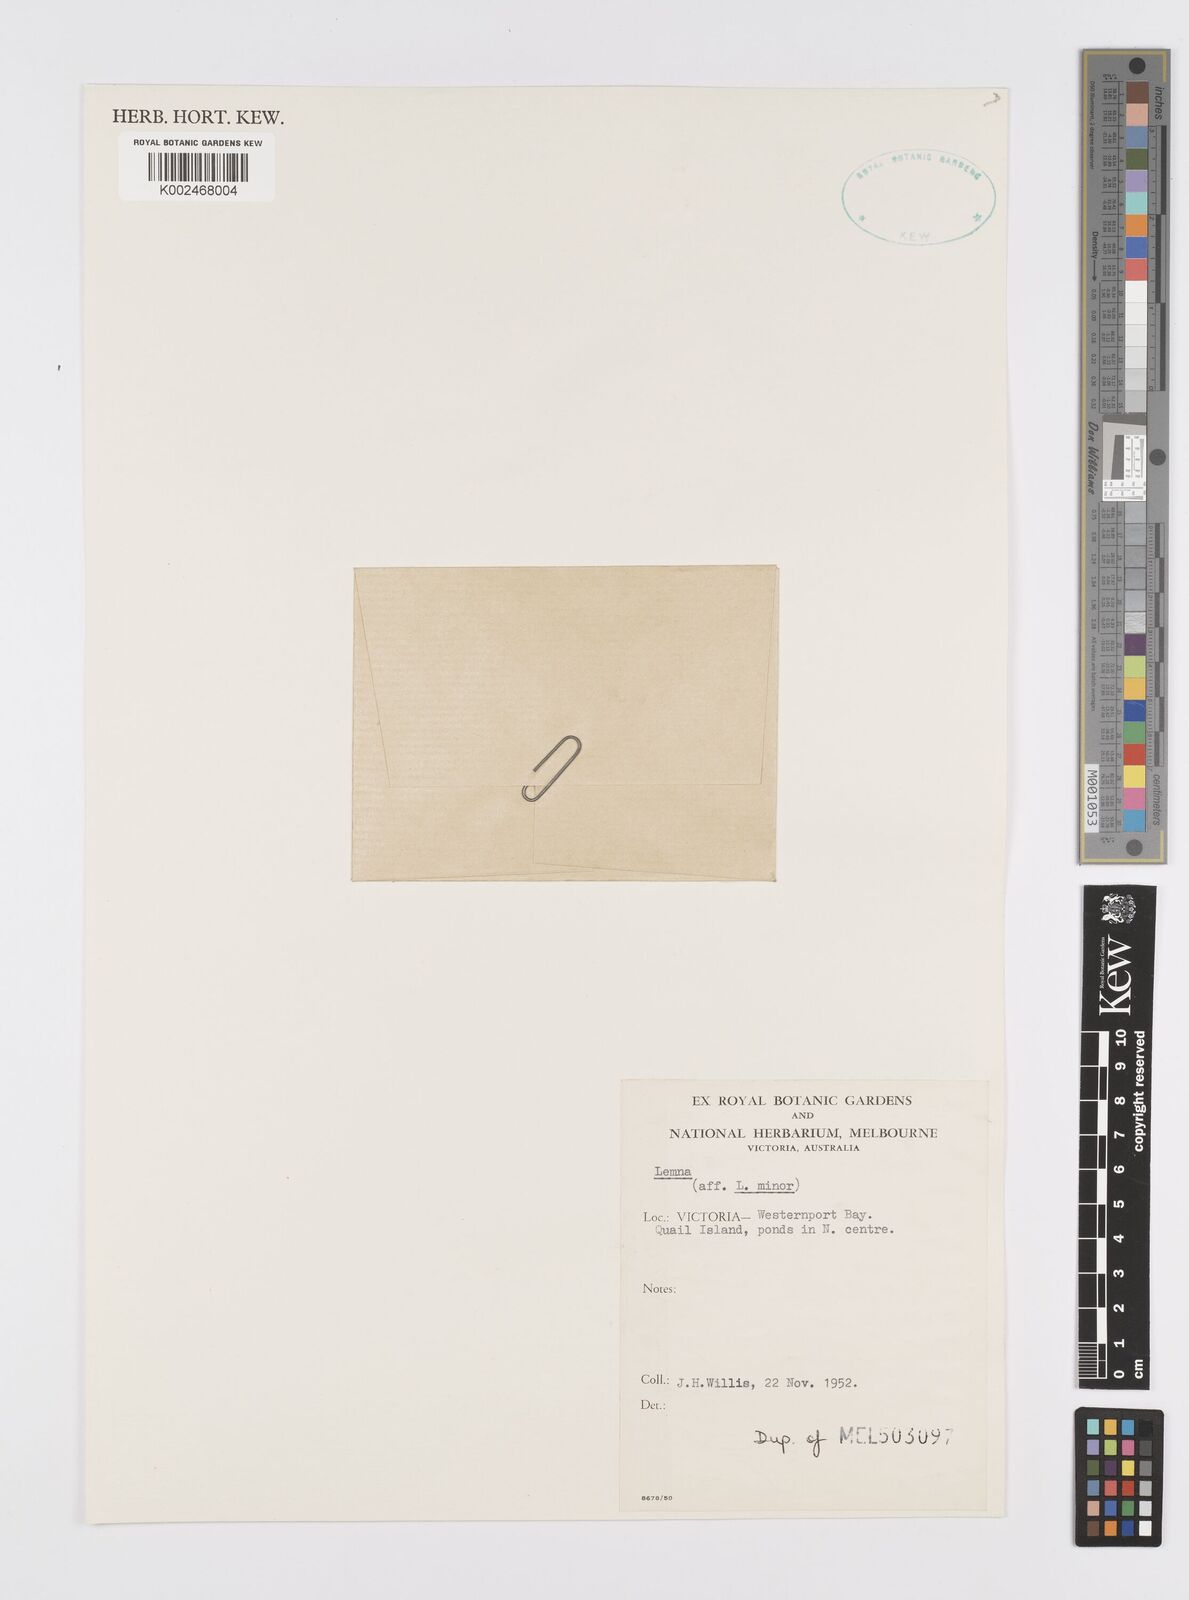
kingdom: Plantae
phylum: Tracheophyta
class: Liliopsida
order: Alismatales
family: Araceae
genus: Lemna
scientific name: Lemna minor
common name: Common duckweed
